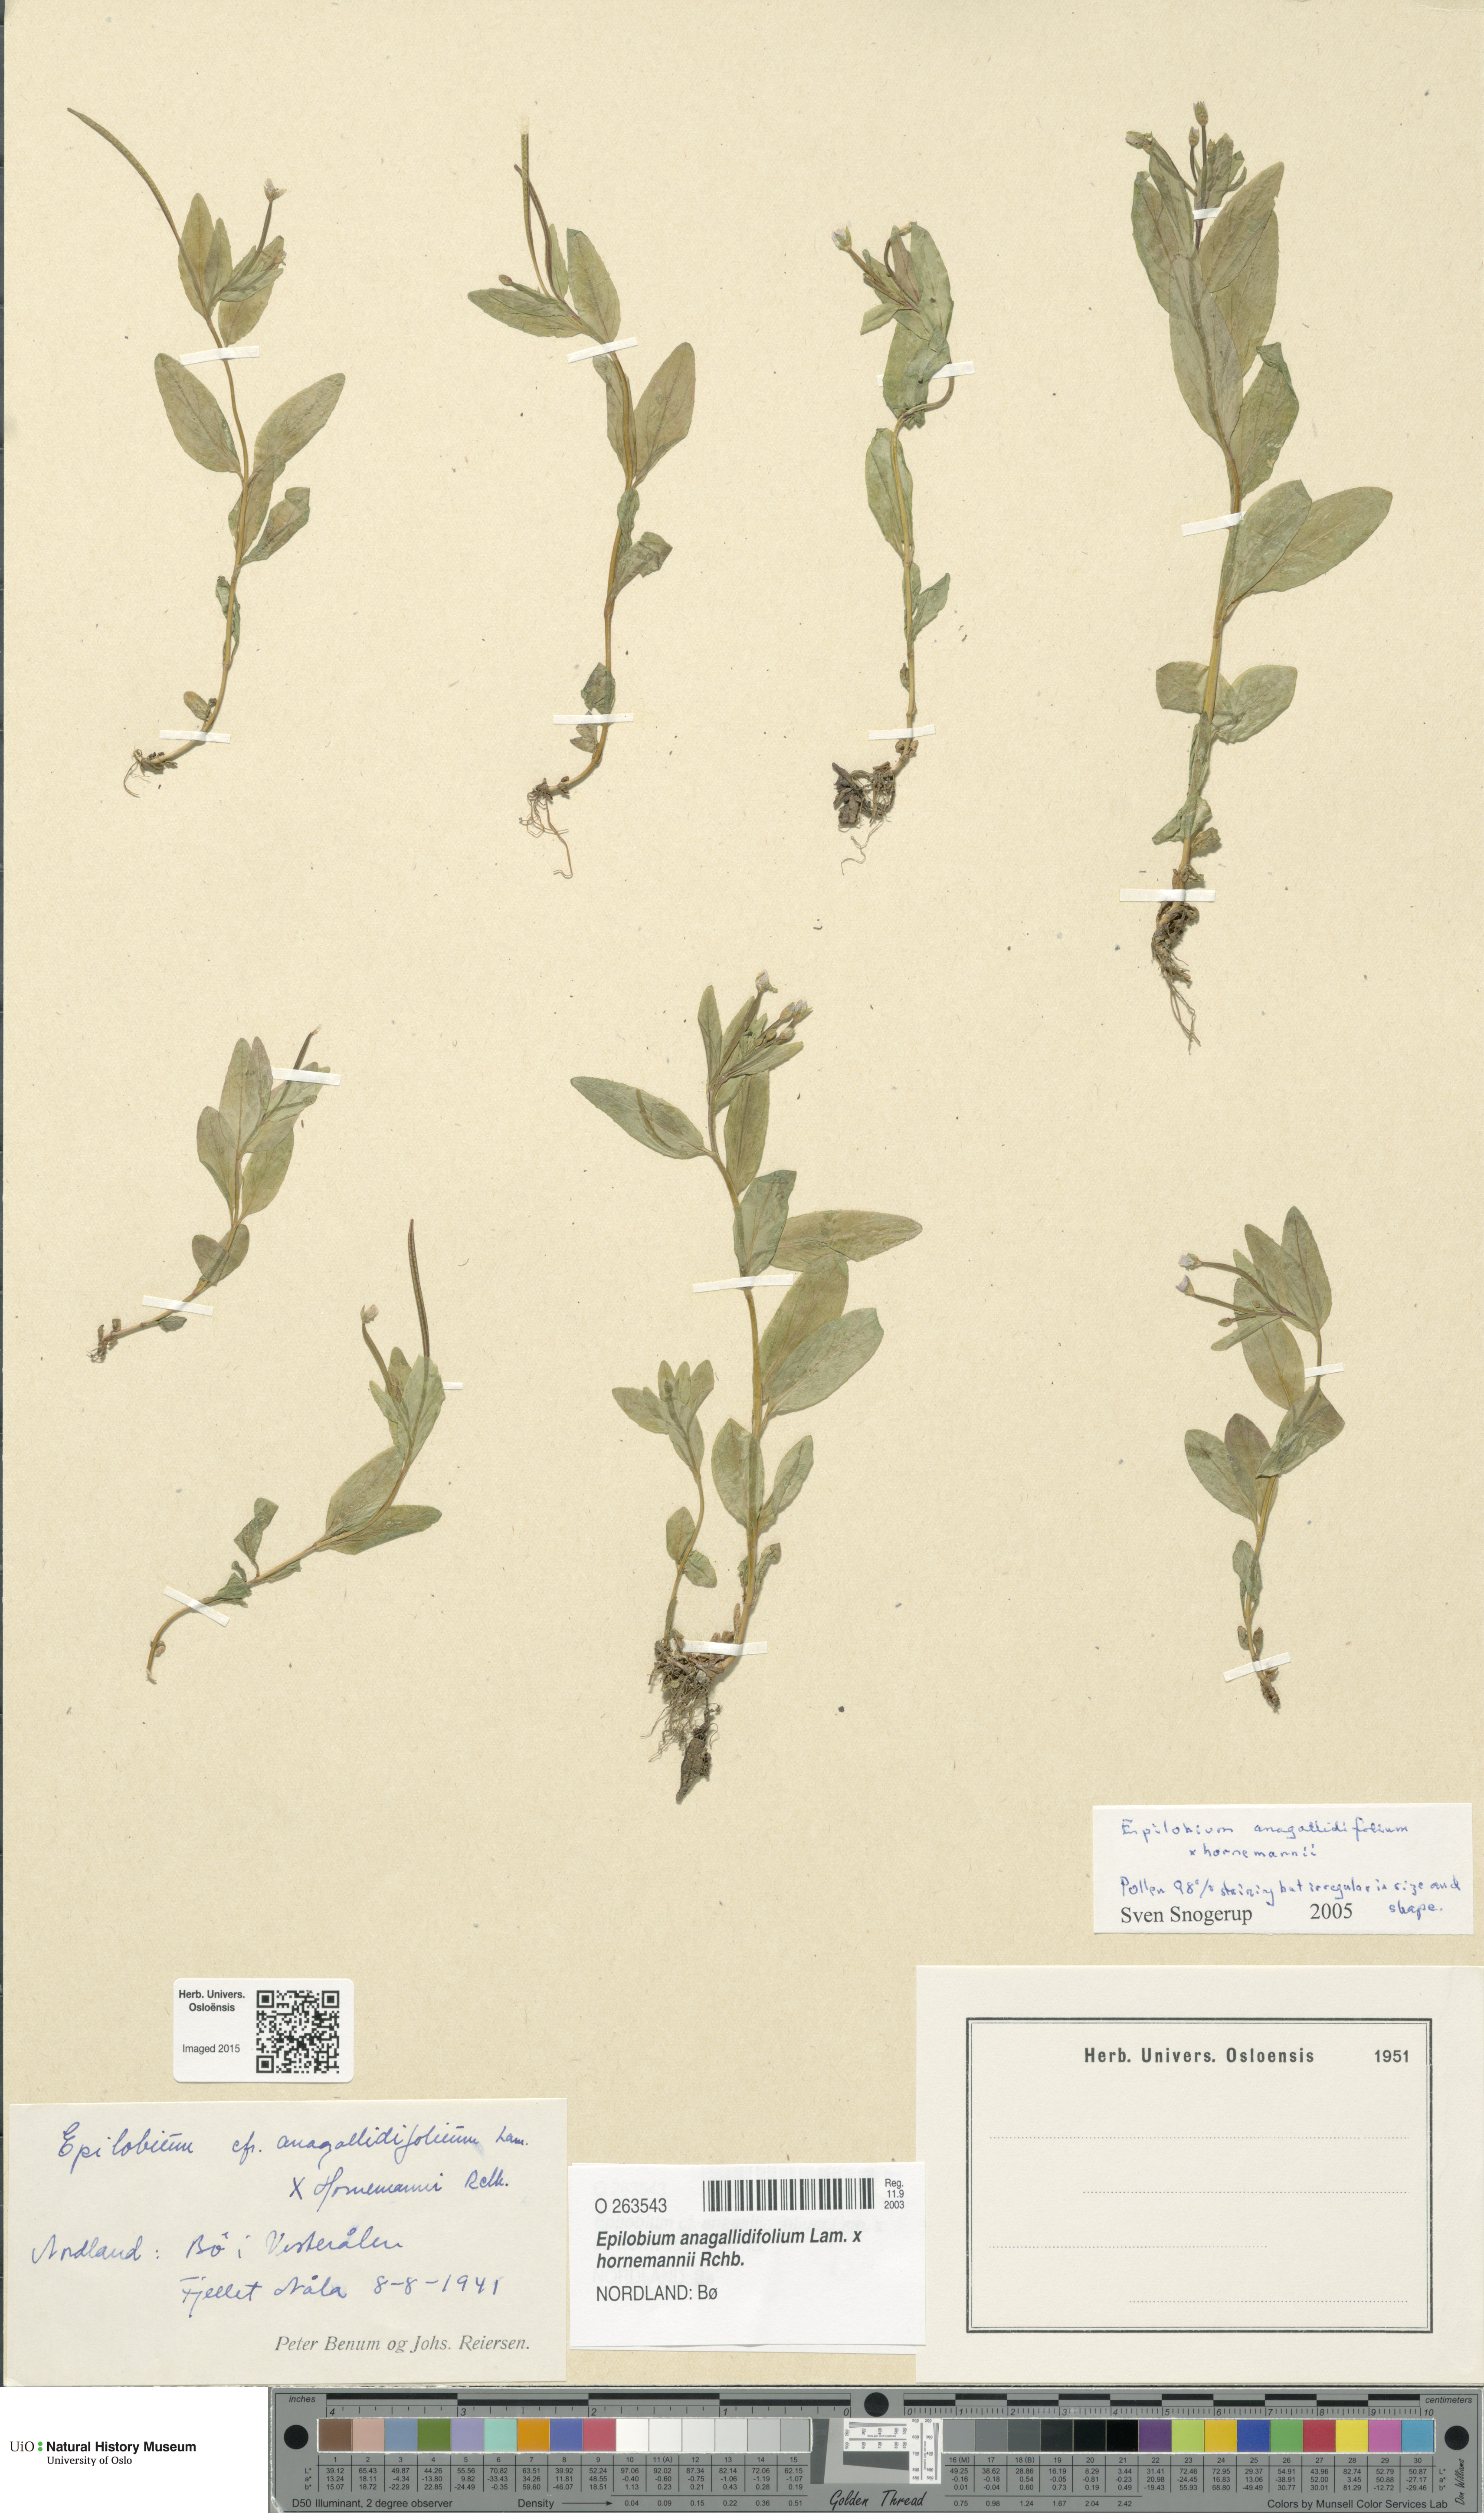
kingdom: Plantae
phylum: Tracheophyta
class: Magnoliopsida
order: Myrtales
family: Onagraceae
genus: Epilobium
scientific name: Epilobium
